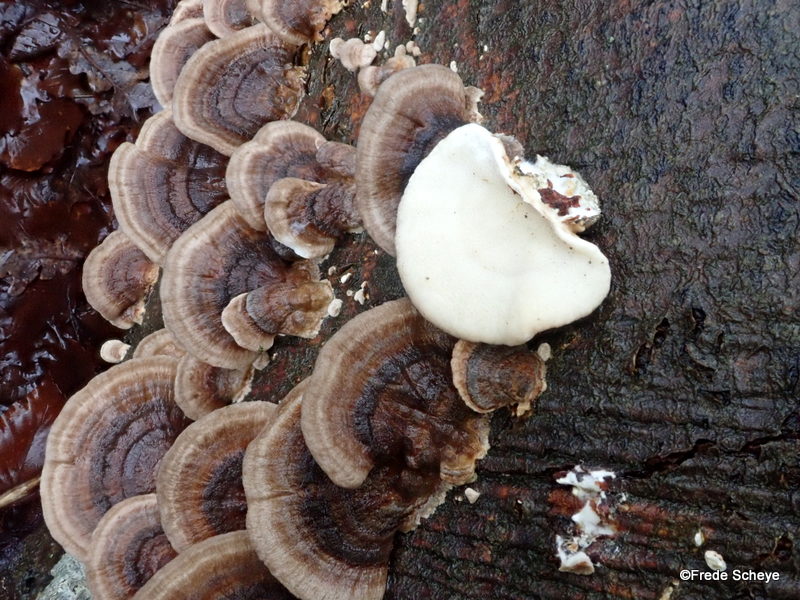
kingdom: Fungi
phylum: Basidiomycota
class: Agaricomycetes
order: Polyporales
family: Polyporaceae
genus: Trametes
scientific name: Trametes versicolor
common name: broget læderporesvamp
